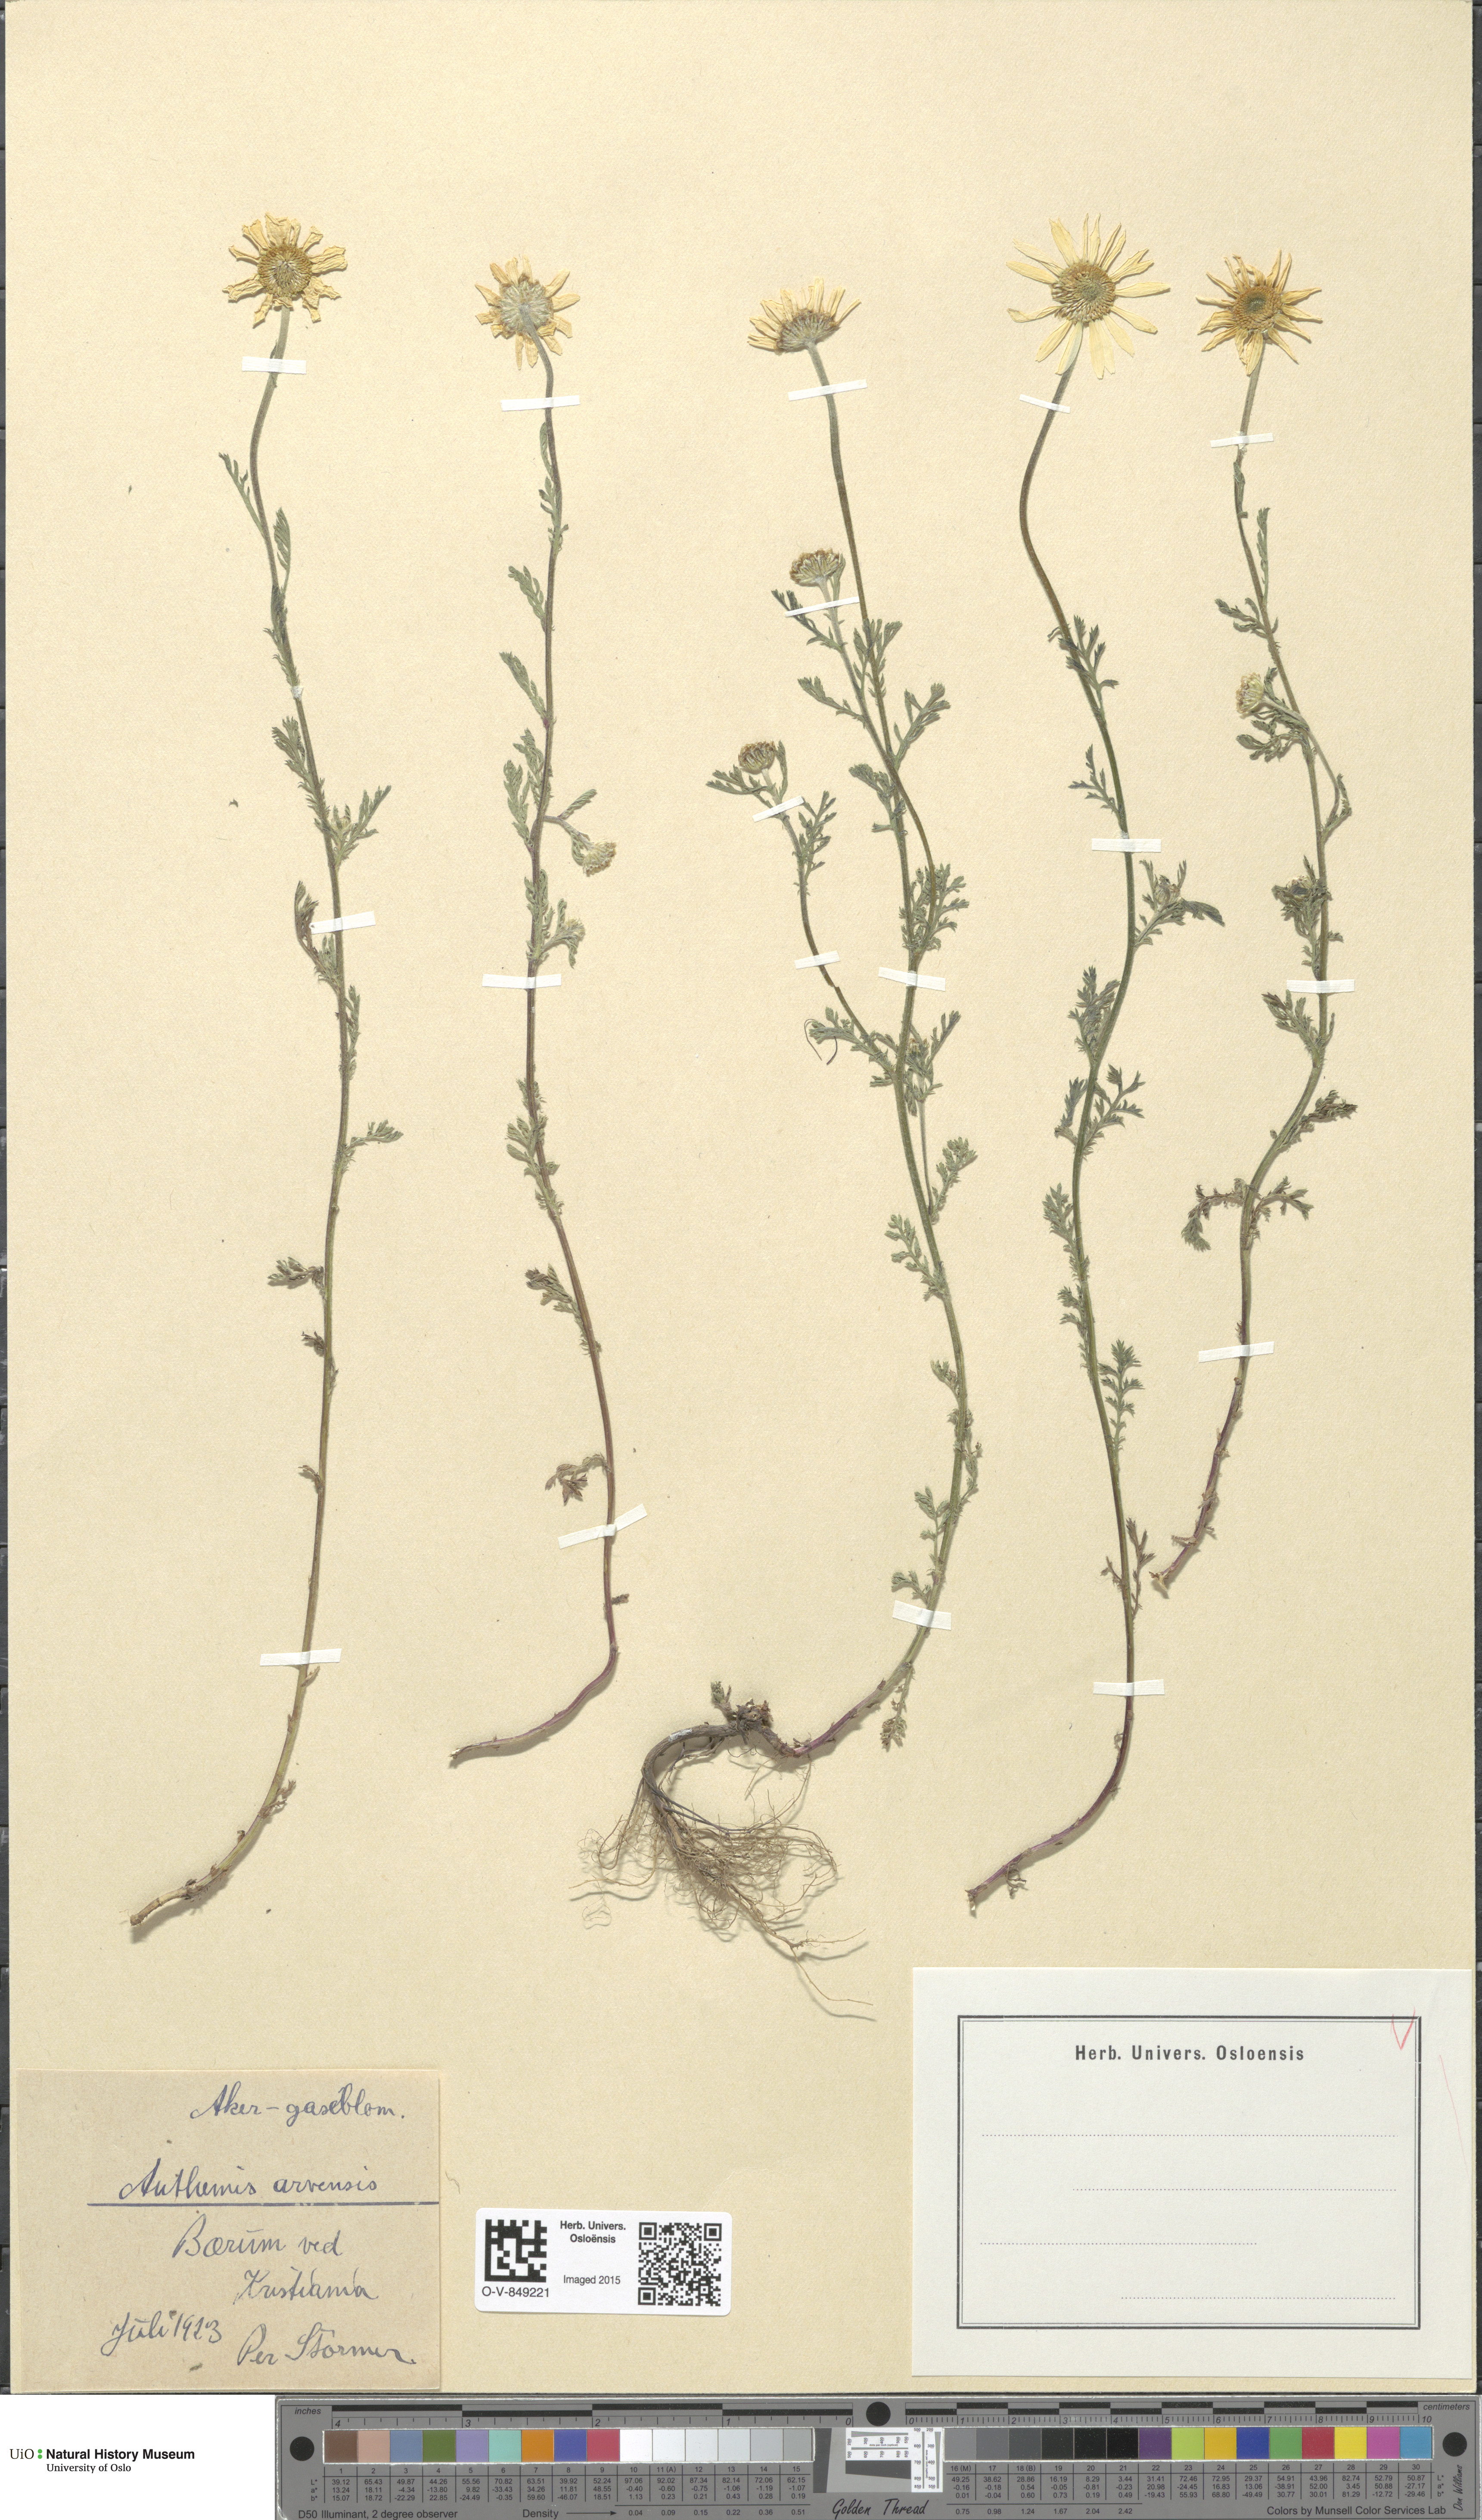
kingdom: Plantae
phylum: Tracheophyta
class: Magnoliopsida
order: Asterales
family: Asteraceae
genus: Anthemis
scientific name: Anthemis arvensis
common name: Corn chamomile
